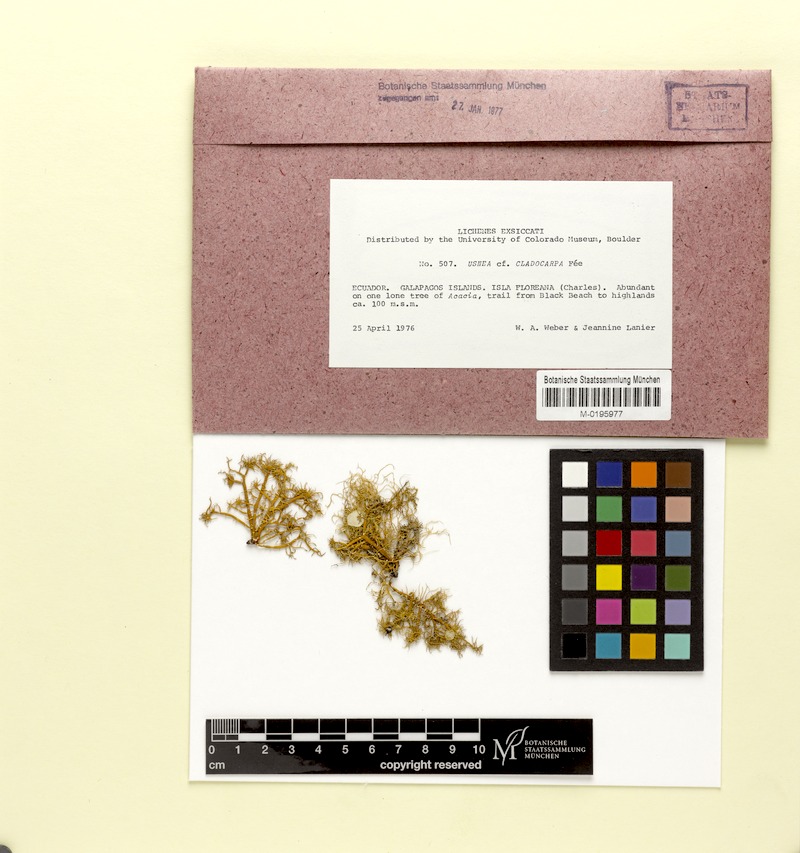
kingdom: Fungi
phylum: Ascomycota
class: Lecanoromycetes
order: Lecanorales
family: Parmeliaceae
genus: Usnea
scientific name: Usnea cladocarpa
